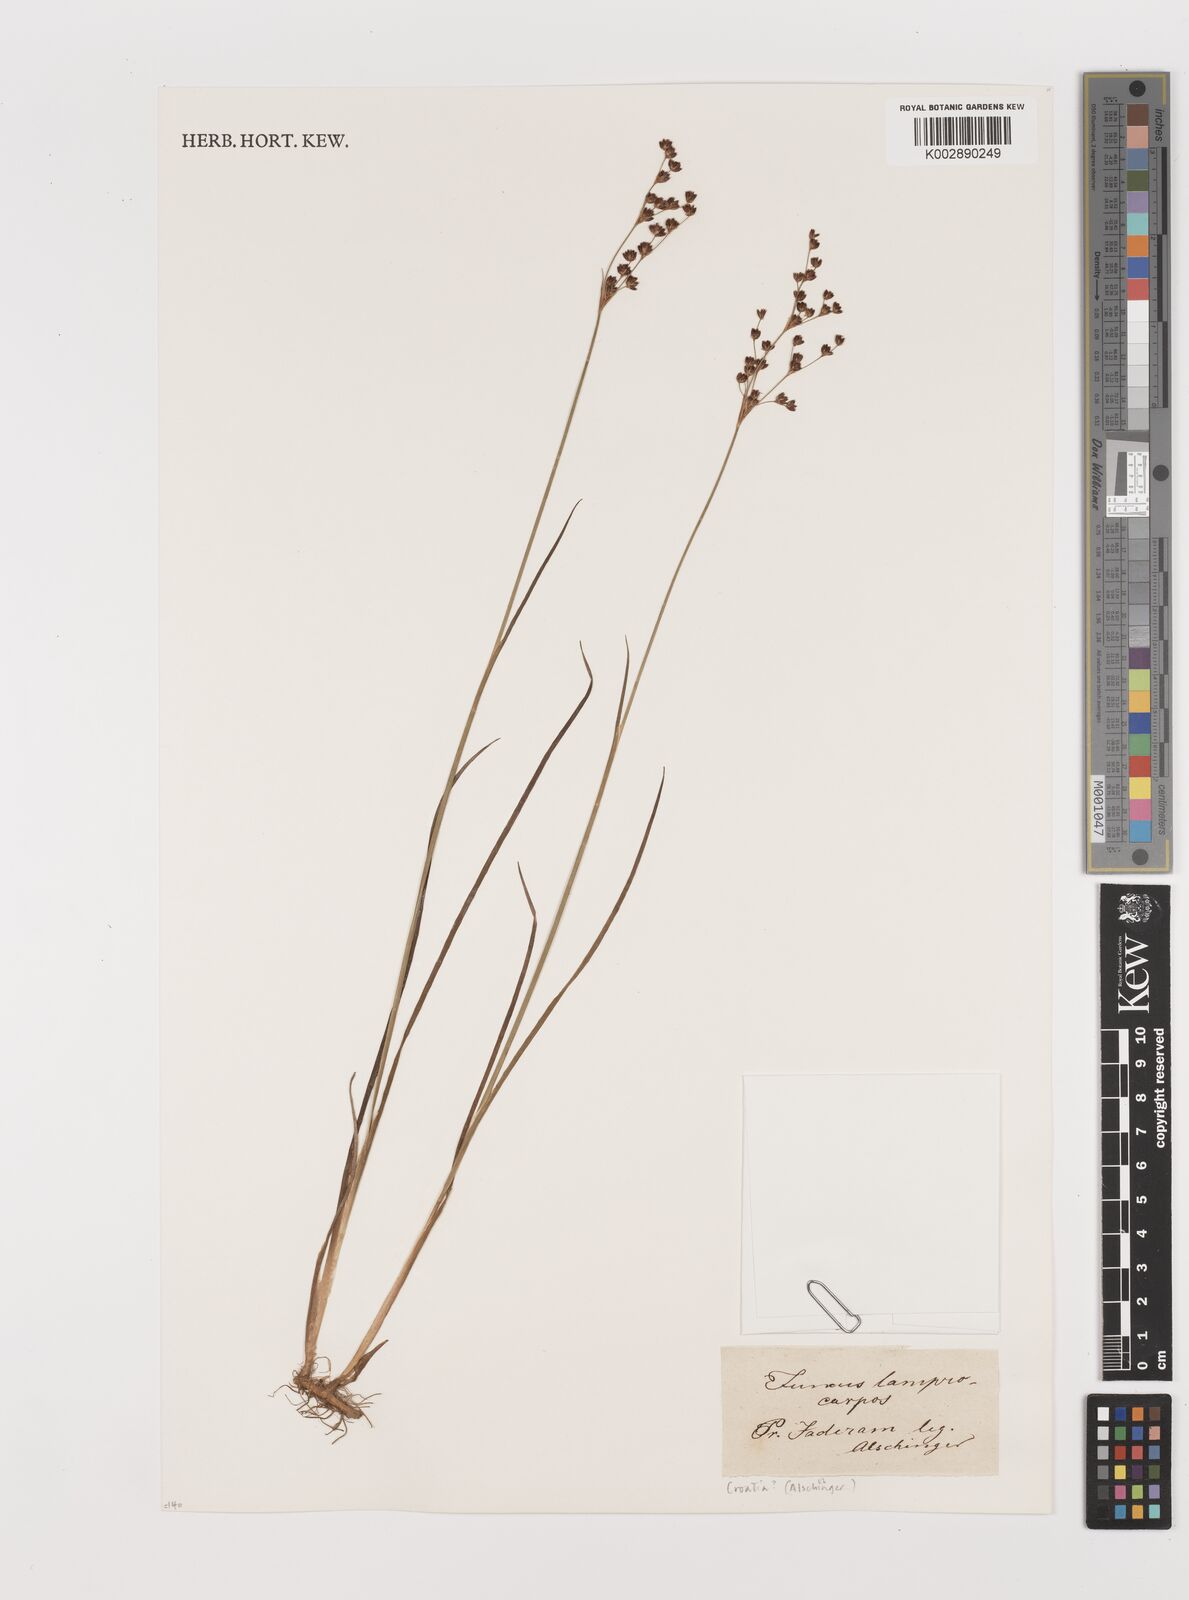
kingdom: Plantae
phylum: Tracheophyta
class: Liliopsida
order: Poales
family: Juncaceae
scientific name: Juncaceae
